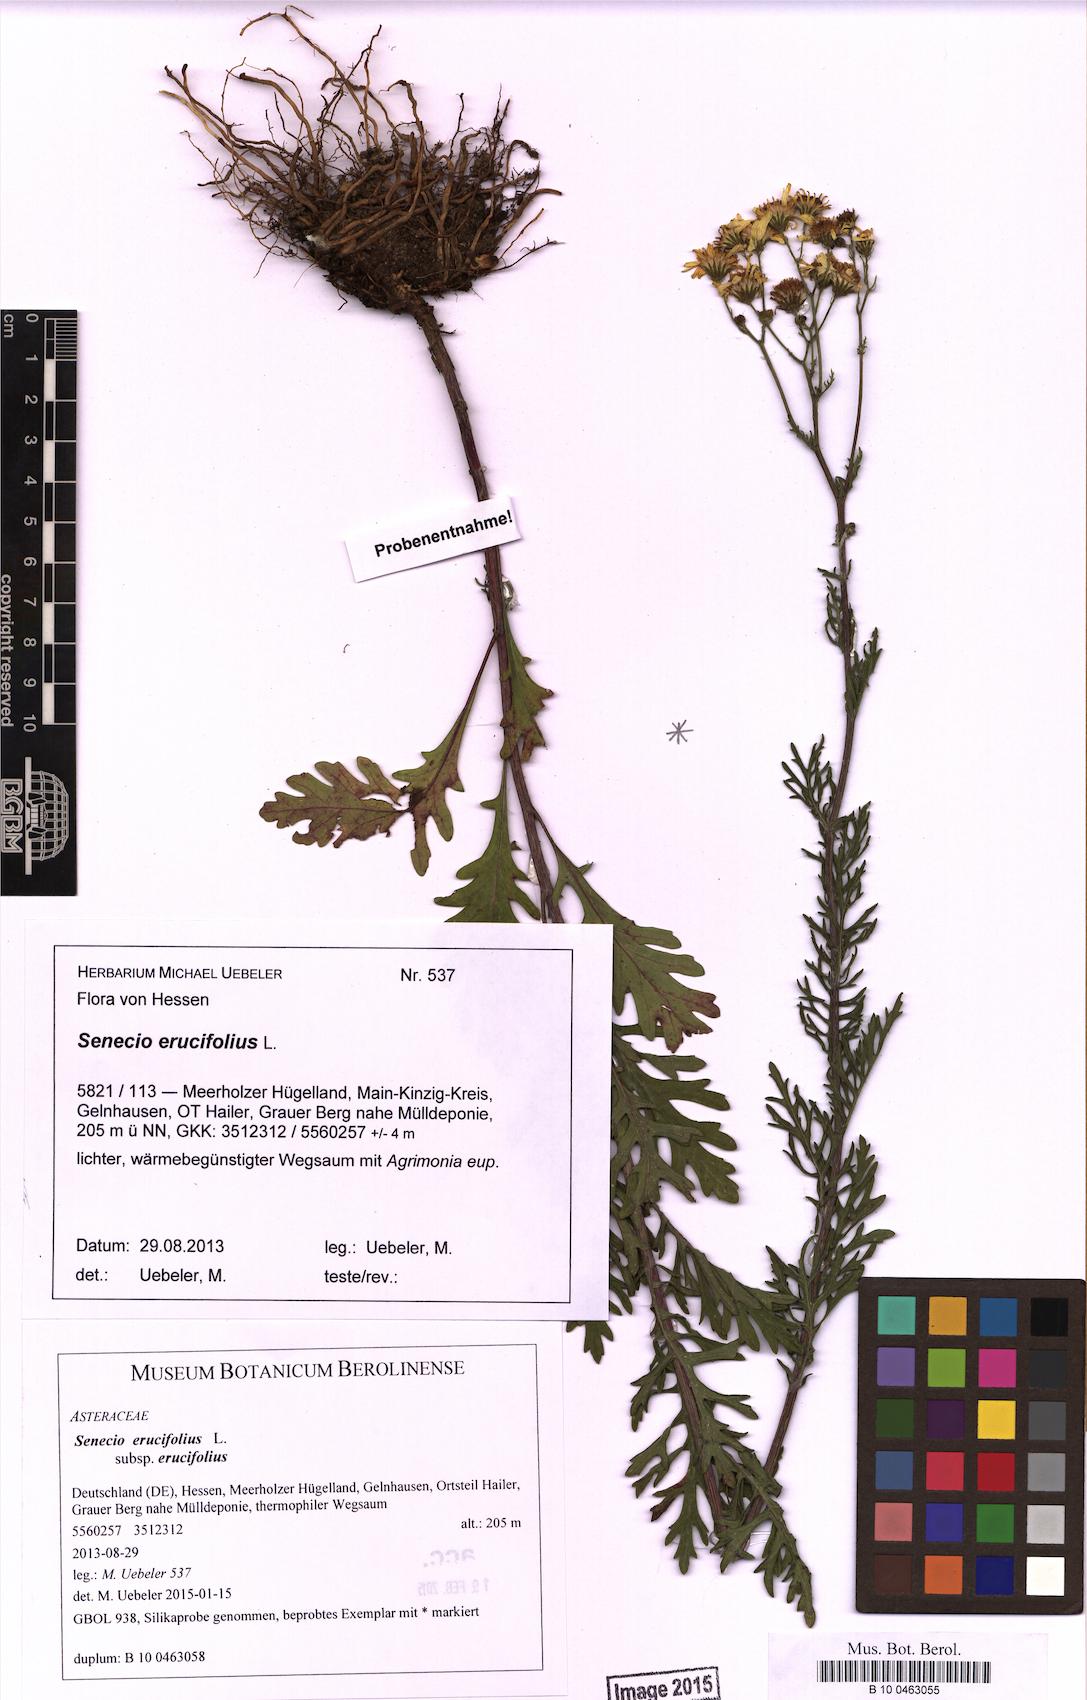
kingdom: Plantae
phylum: Tracheophyta
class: Magnoliopsida
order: Asterales
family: Asteraceae
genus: Jacobaea
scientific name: Jacobaea erucifolia
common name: Hoary ragwort
